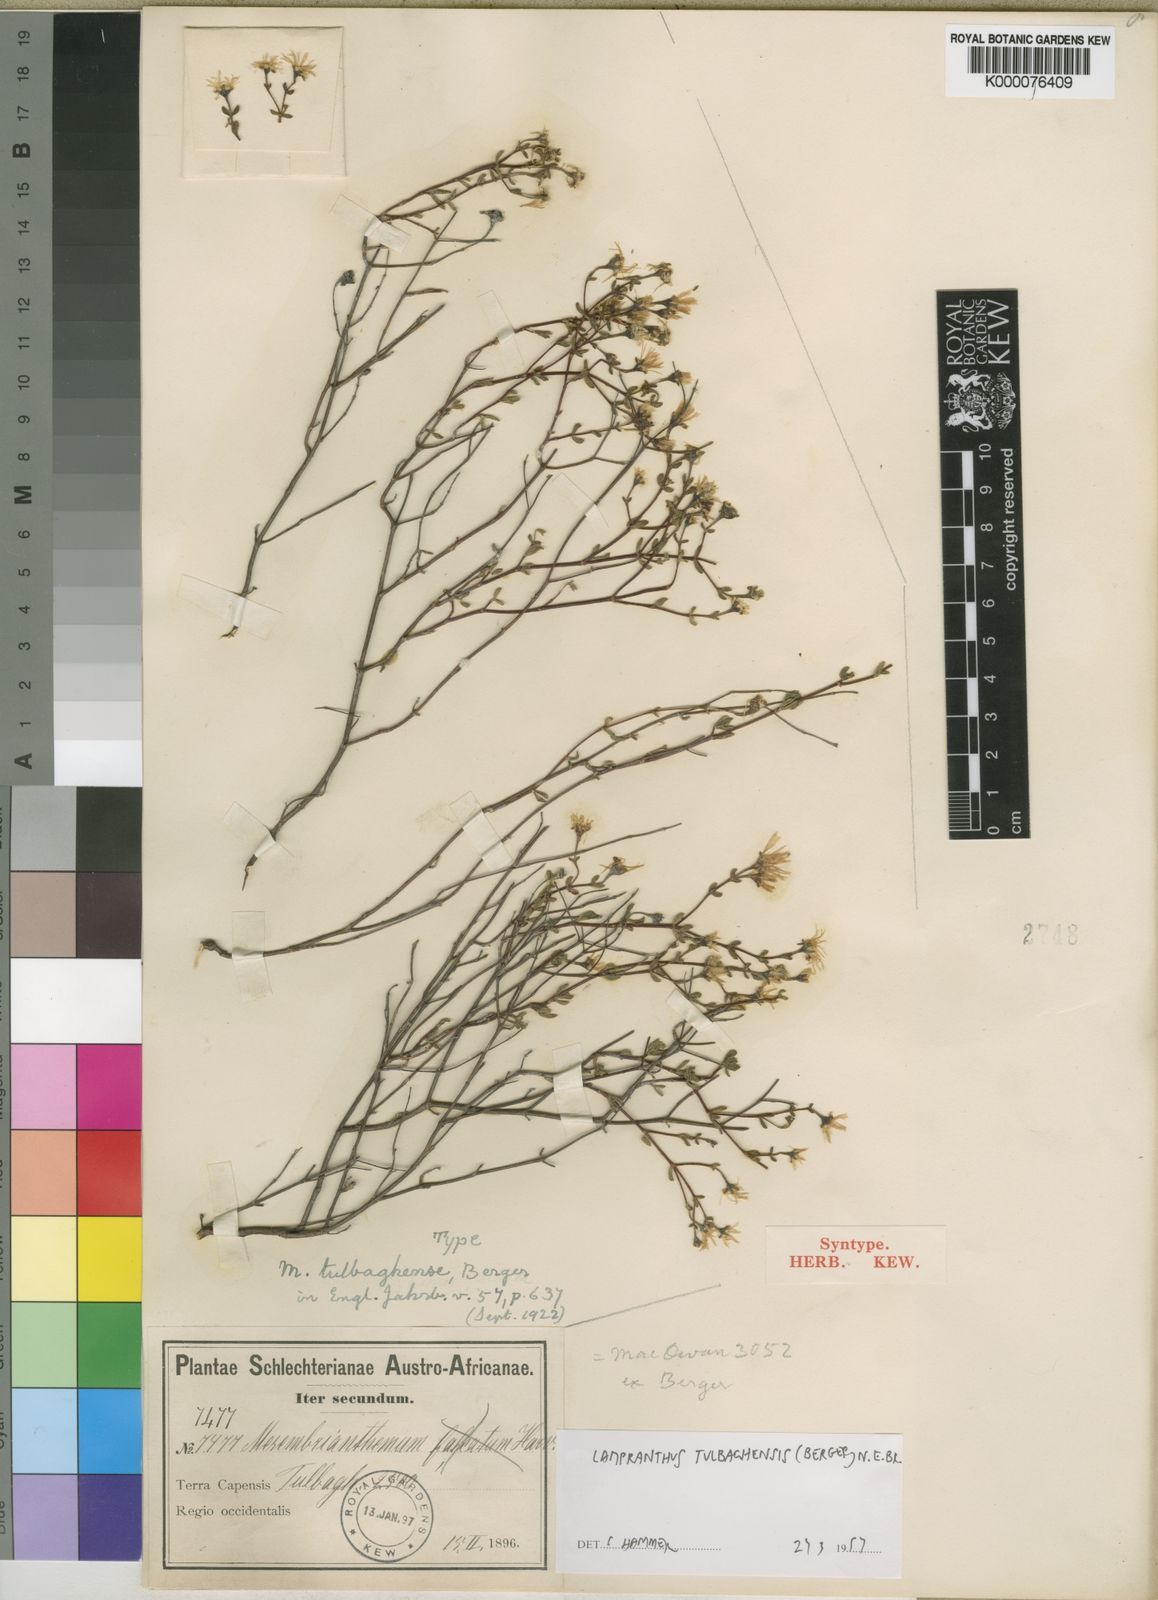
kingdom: Plantae
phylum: Tracheophyta
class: Magnoliopsida
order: Caryophyllales
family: Aizoaceae
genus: Lampranthus
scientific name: Lampranthus tulbaghensis
